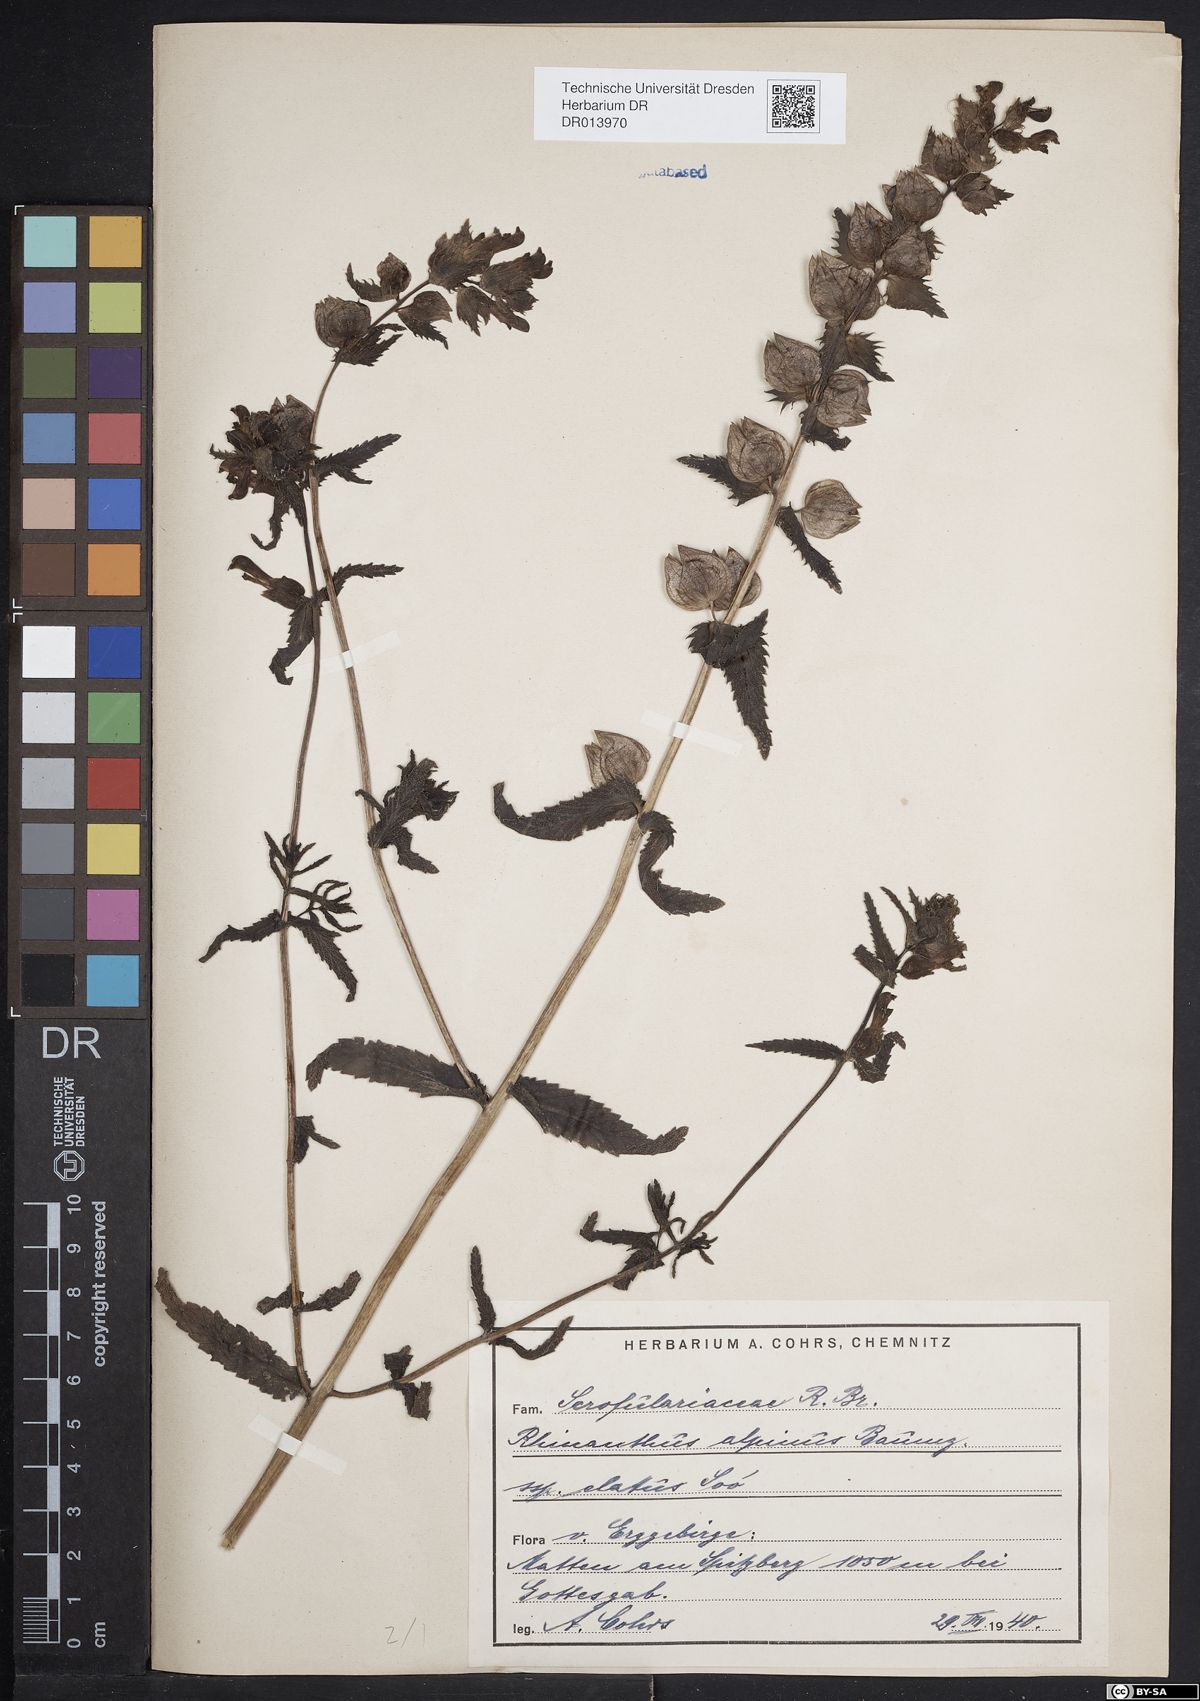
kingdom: Plantae
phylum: Tracheophyta
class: Magnoliopsida
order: Lamiales
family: Orobanchaceae
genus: Rhinanthus
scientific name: Rhinanthus riphaeus
